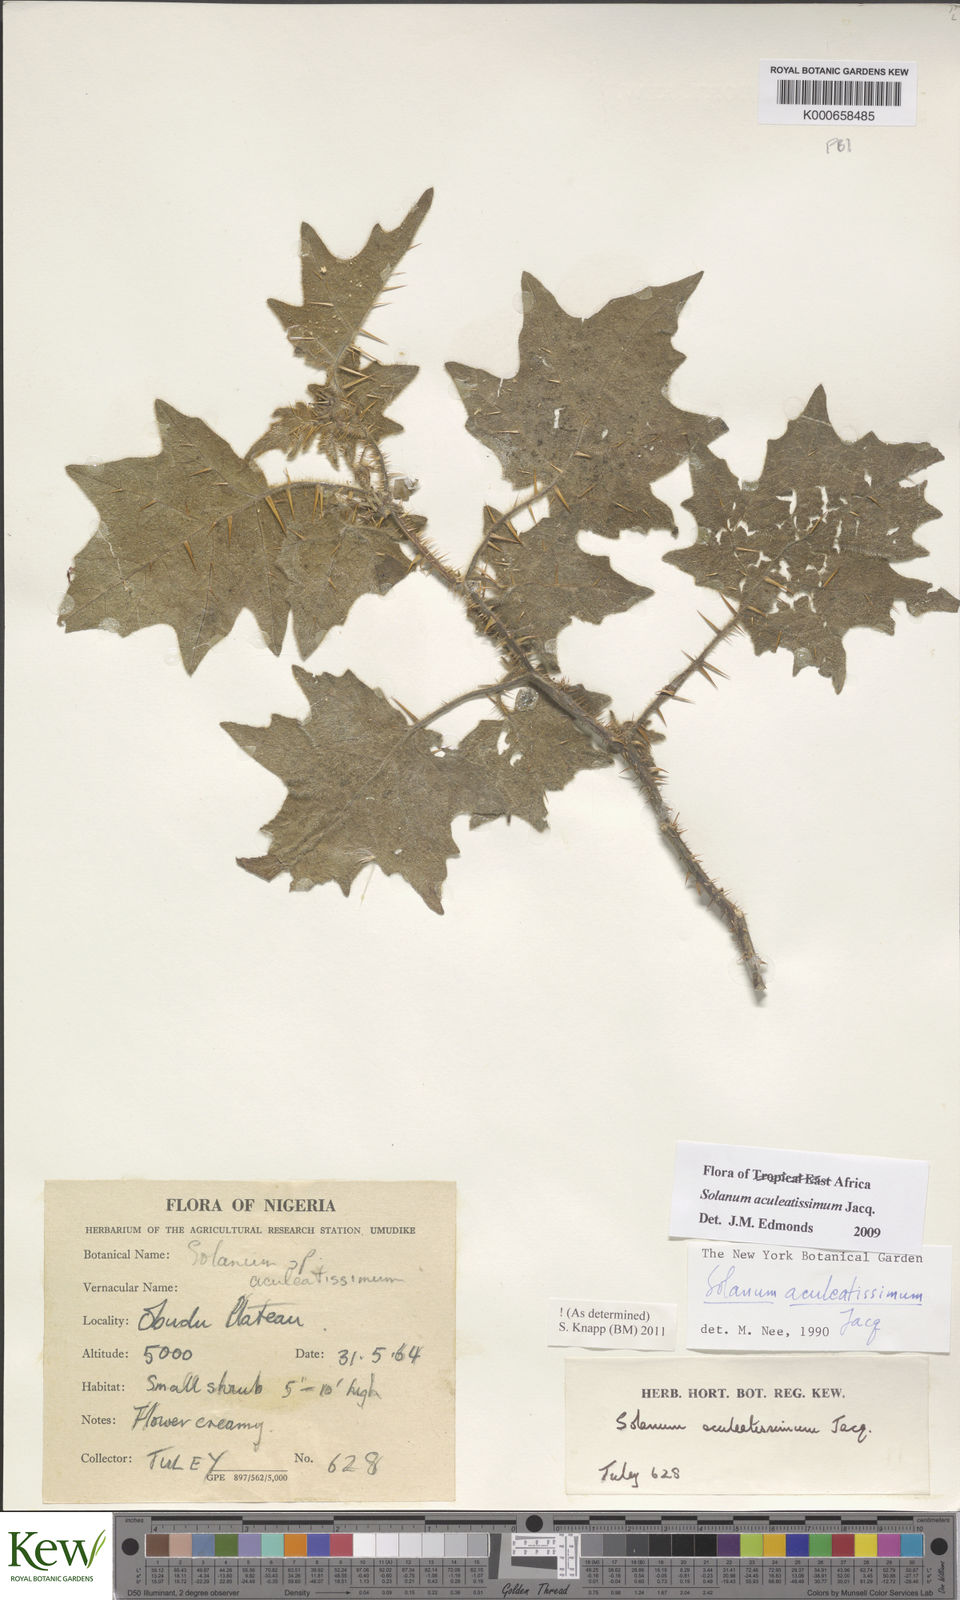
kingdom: Plantae
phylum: Tracheophyta
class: Magnoliopsida
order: Solanales
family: Solanaceae
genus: Solanum
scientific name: Solanum aculeatissimum
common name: Dutch eggplant
